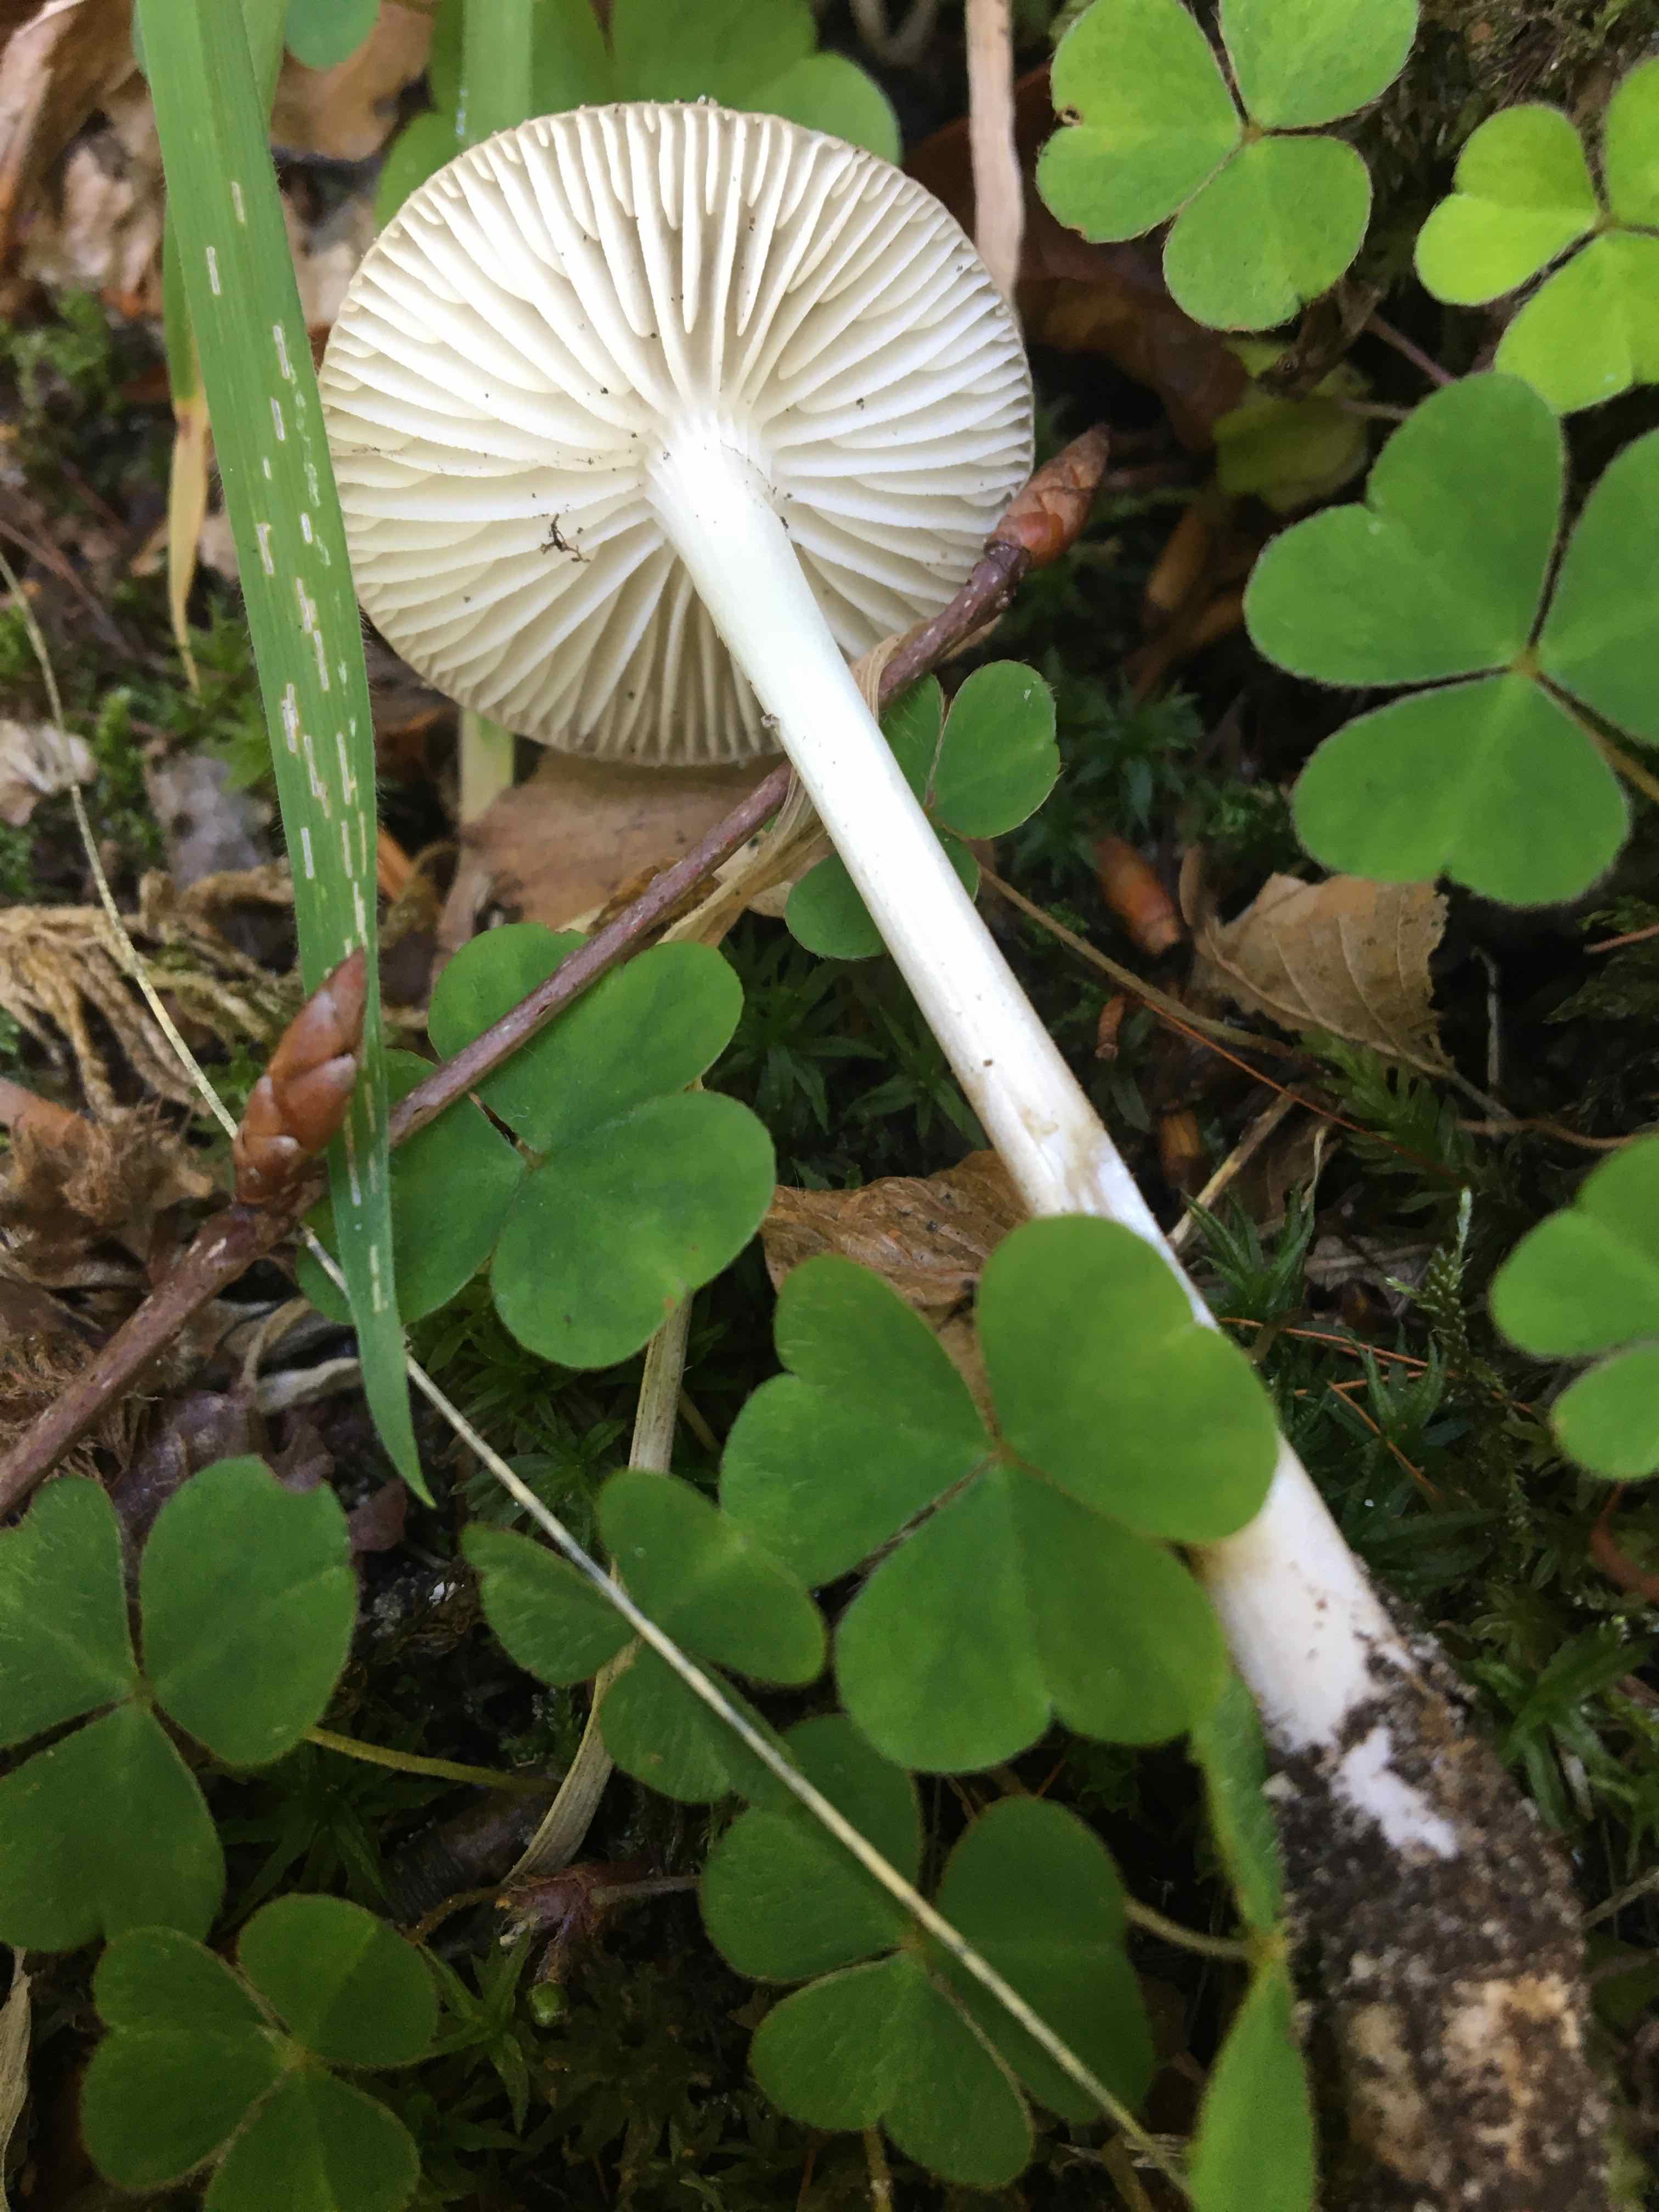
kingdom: Fungi
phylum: Basidiomycota
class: Agaricomycetes
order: Agaricales
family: Physalacriaceae
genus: Hymenopellis
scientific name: Hymenopellis radicata
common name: almindelig pælerodshat
